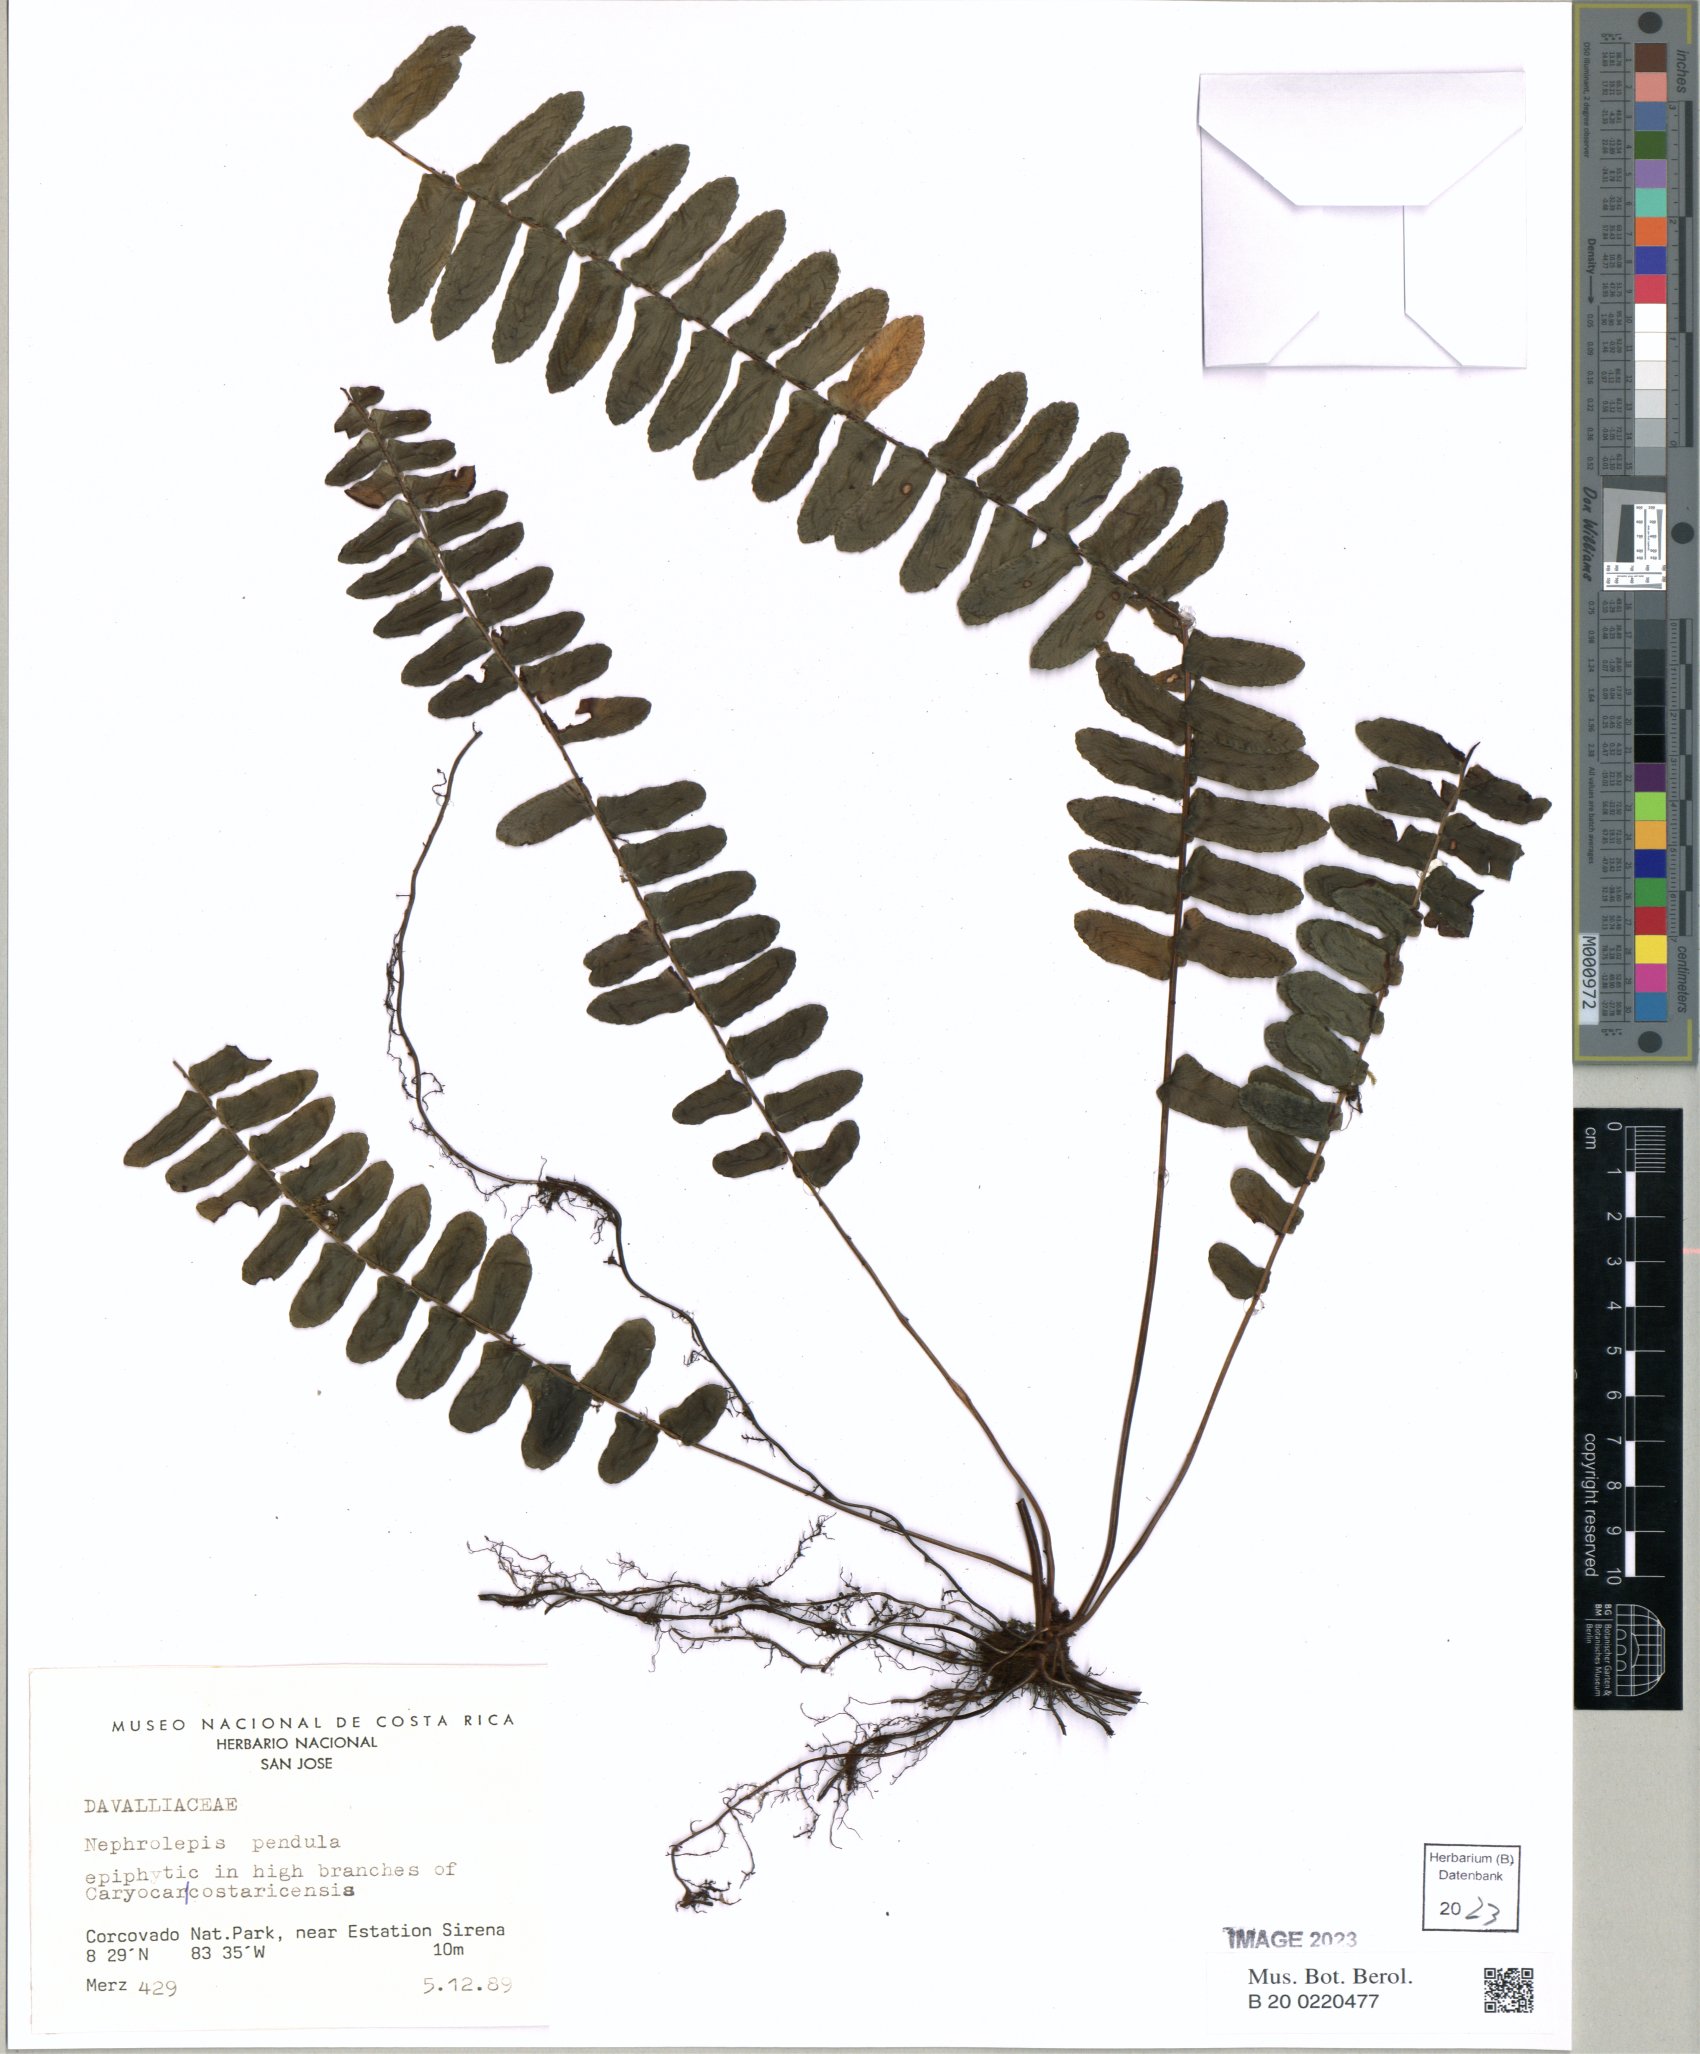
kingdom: Plantae
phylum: Tracheophyta
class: Polypodiopsida
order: Polypodiales
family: Nephrolepidaceae
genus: Nephrolepis
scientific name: Nephrolepis pendula
